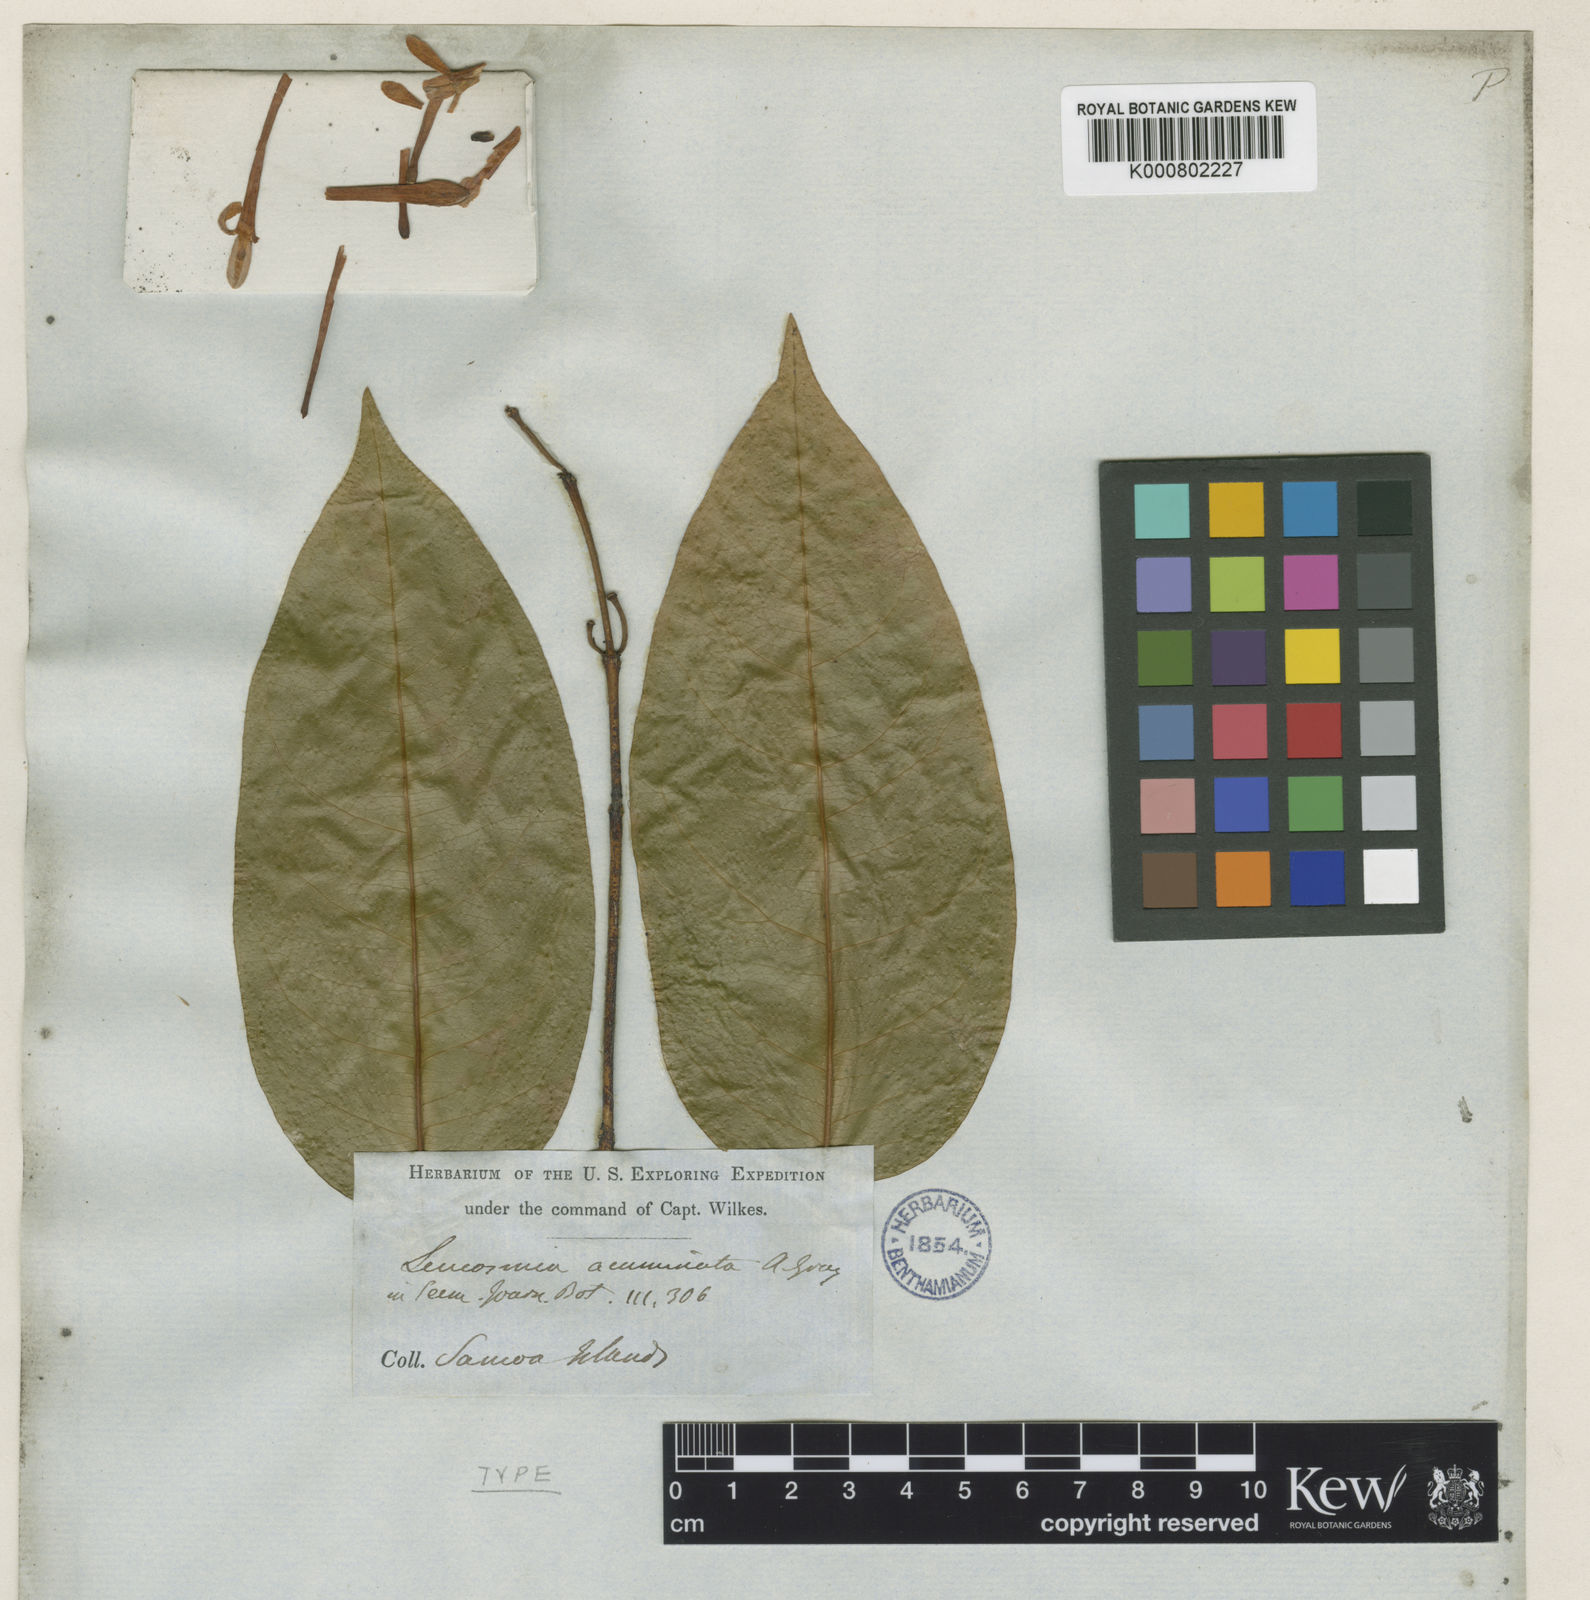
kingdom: Plantae
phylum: Tracheophyta
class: Magnoliopsida
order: Malvales
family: Thymelaeaceae
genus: Phaleria
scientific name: Phaleria
